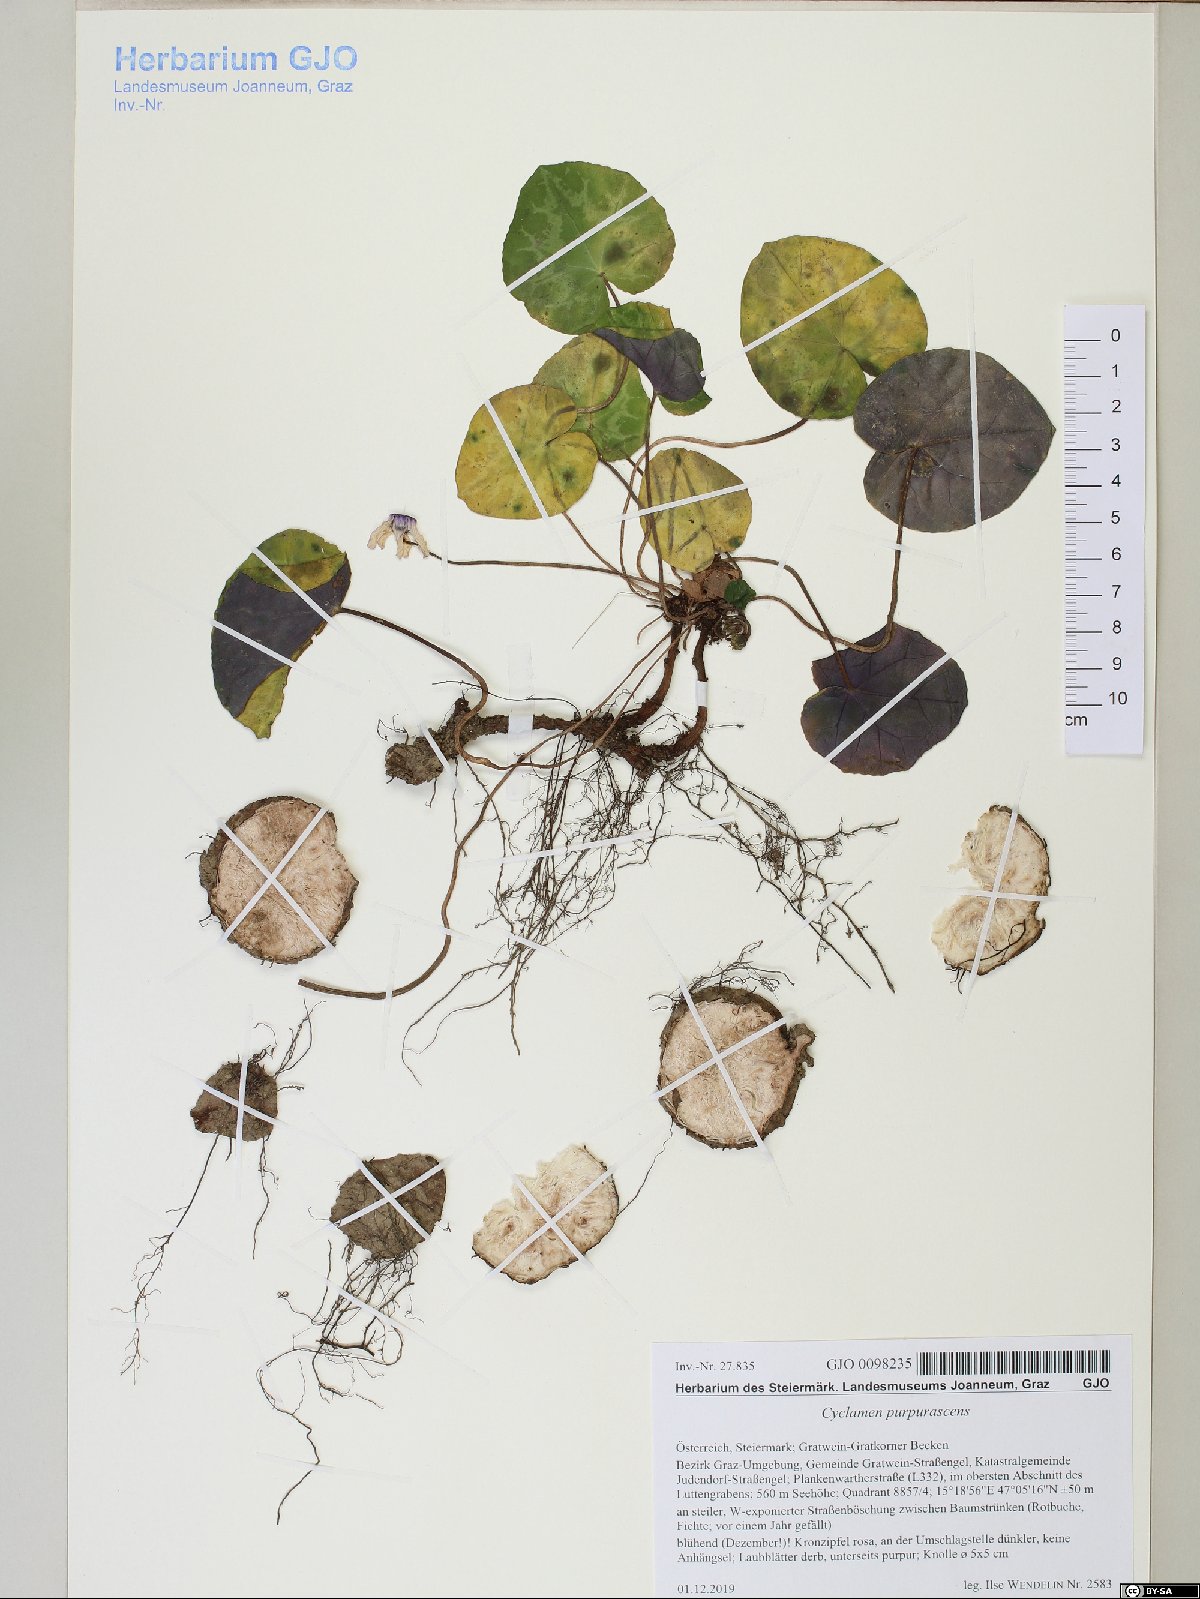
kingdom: Plantae
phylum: Tracheophyta
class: Magnoliopsida
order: Ericales
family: Primulaceae
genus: Cyclamen
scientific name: Cyclamen purpurascens
